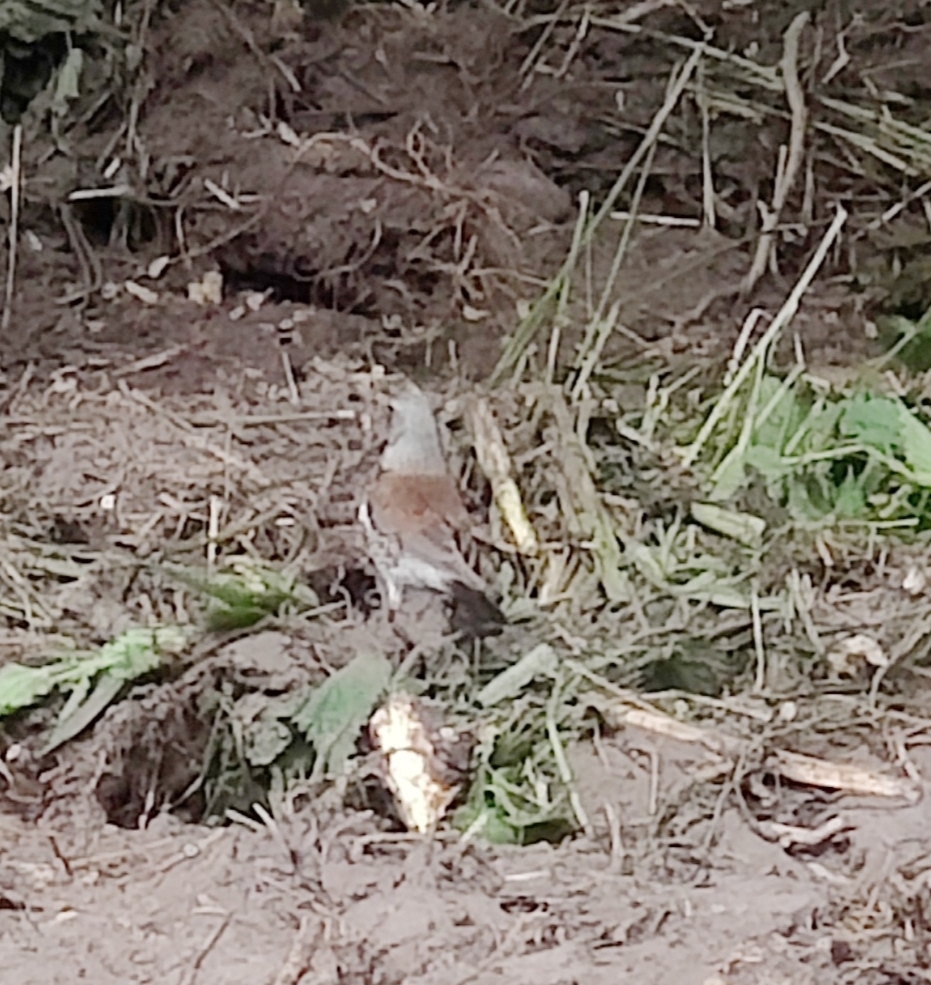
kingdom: Animalia
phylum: Chordata
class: Aves
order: Passeriformes
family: Turdidae
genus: Turdus
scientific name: Turdus pilaris
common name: Sjagger
